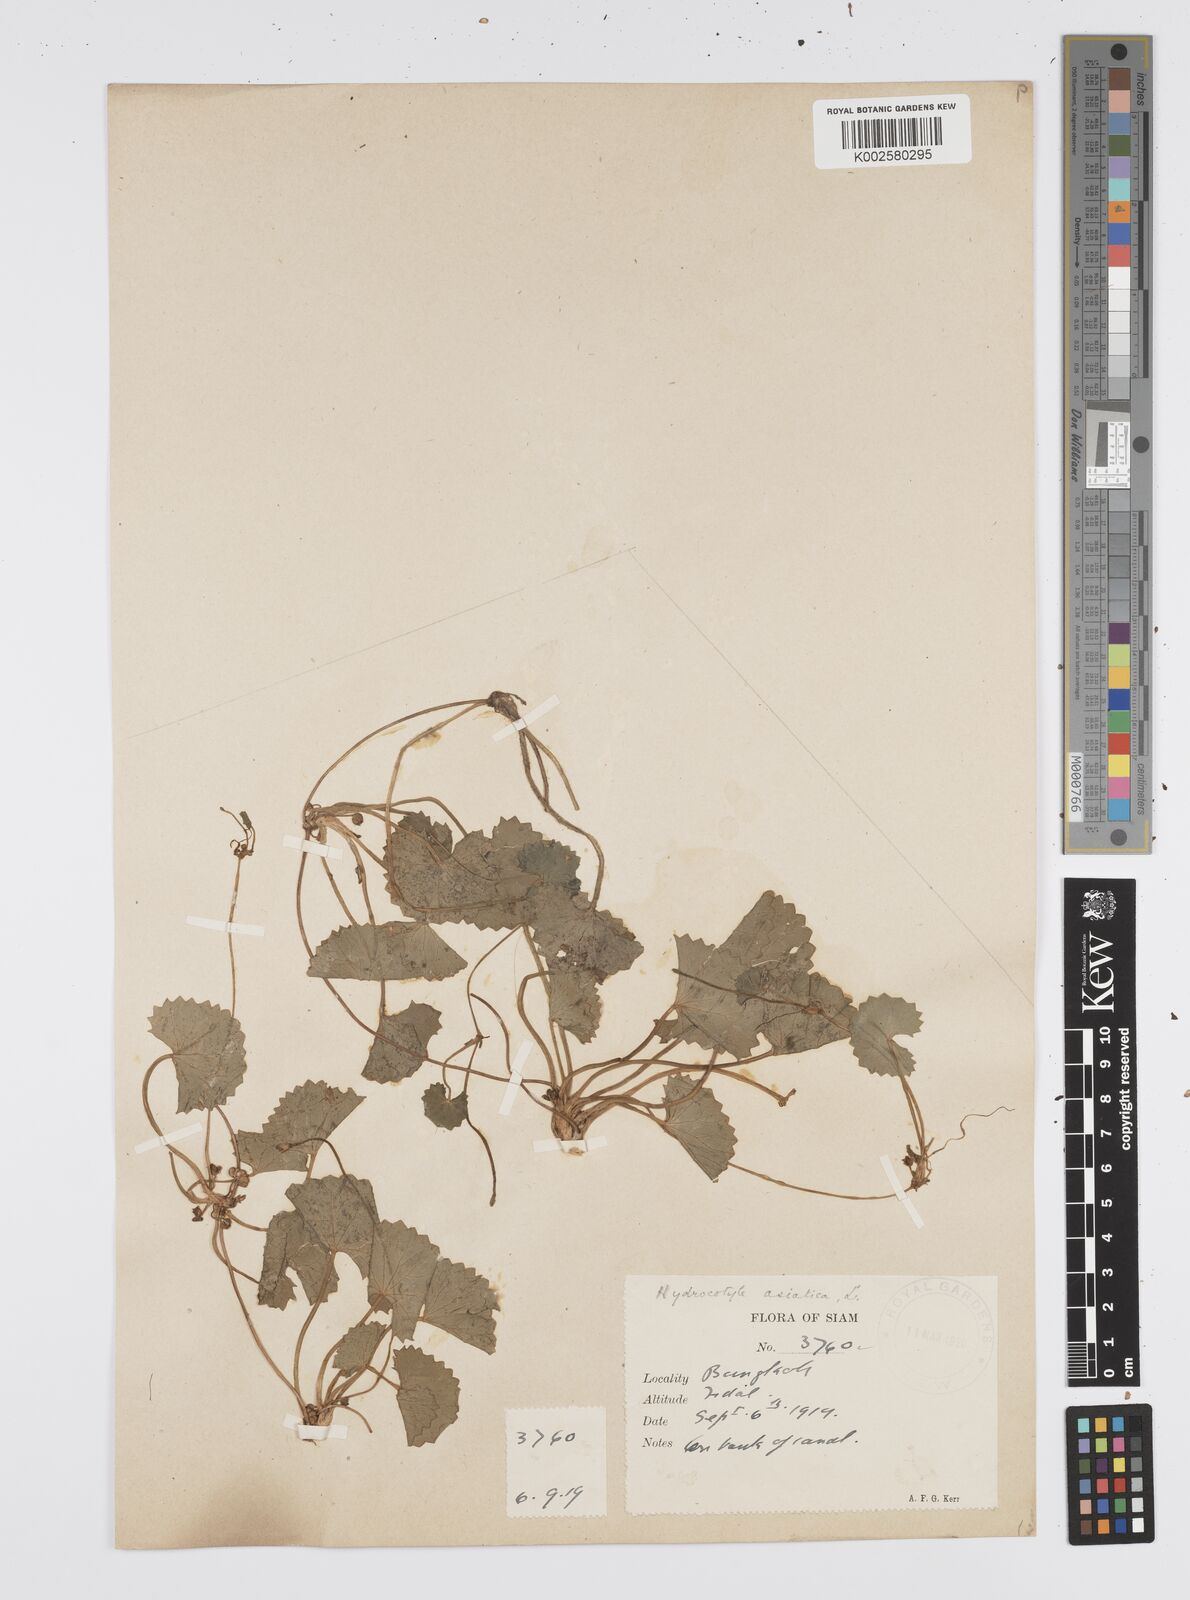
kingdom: Plantae
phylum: Tracheophyta
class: Magnoliopsida
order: Apiales
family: Apiaceae
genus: Centella
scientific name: Centella asiatica
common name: Spadeleaf
